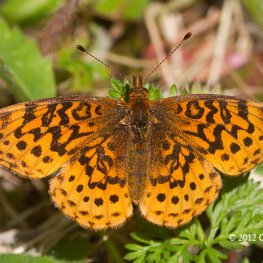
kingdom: Animalia
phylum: Arthropoda
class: Insecta
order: Lepidoptera
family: Nymphalidae
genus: Clossiana
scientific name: Clossiana toddi
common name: Meadow Fritillary
